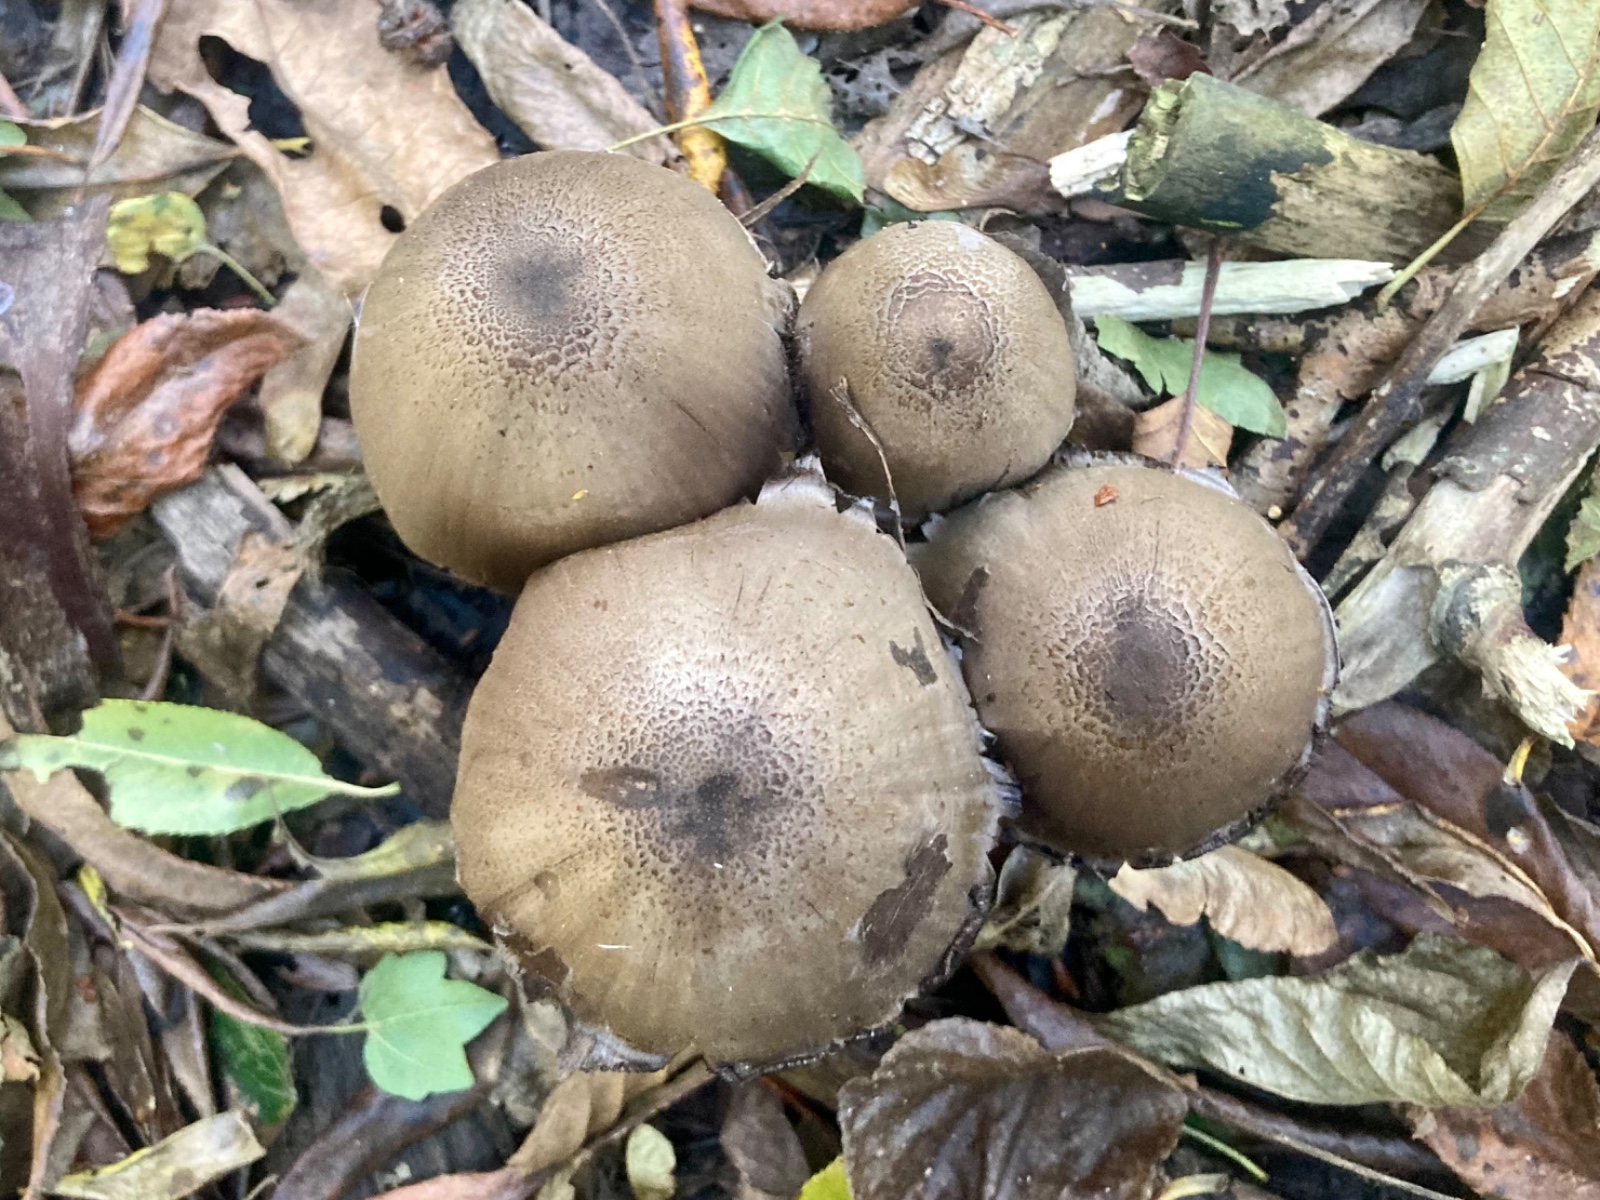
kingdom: Fungi
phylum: Basidiomycota
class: Agaricomycetes
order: Agaricales
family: Psathyrellaceae
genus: Coprinopsis
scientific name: Coprinopsis romagnesiana
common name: brunskællet blækhat
